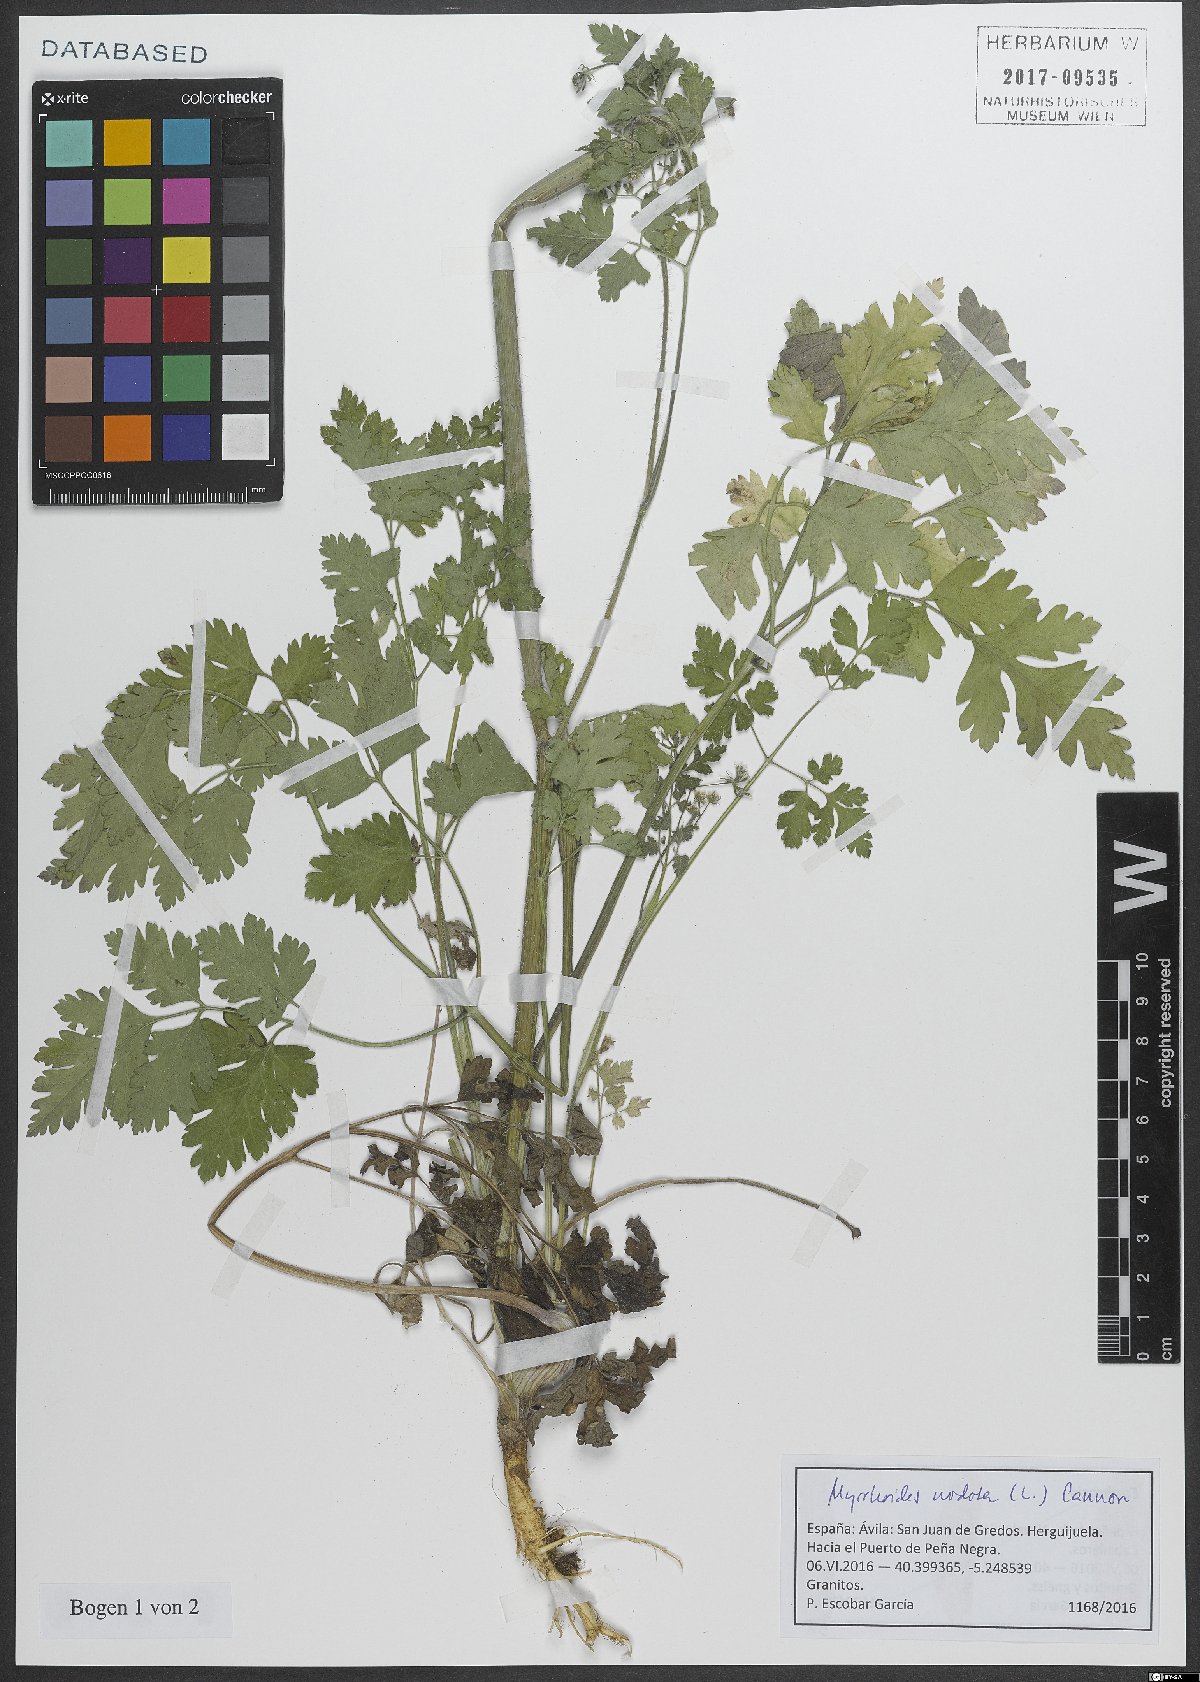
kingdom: Plantae
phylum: Tracheophyta
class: Magnoliopsida
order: Apiales
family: Apiaceae
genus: Chaerophyllum
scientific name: Chaerophyllum nodosum
